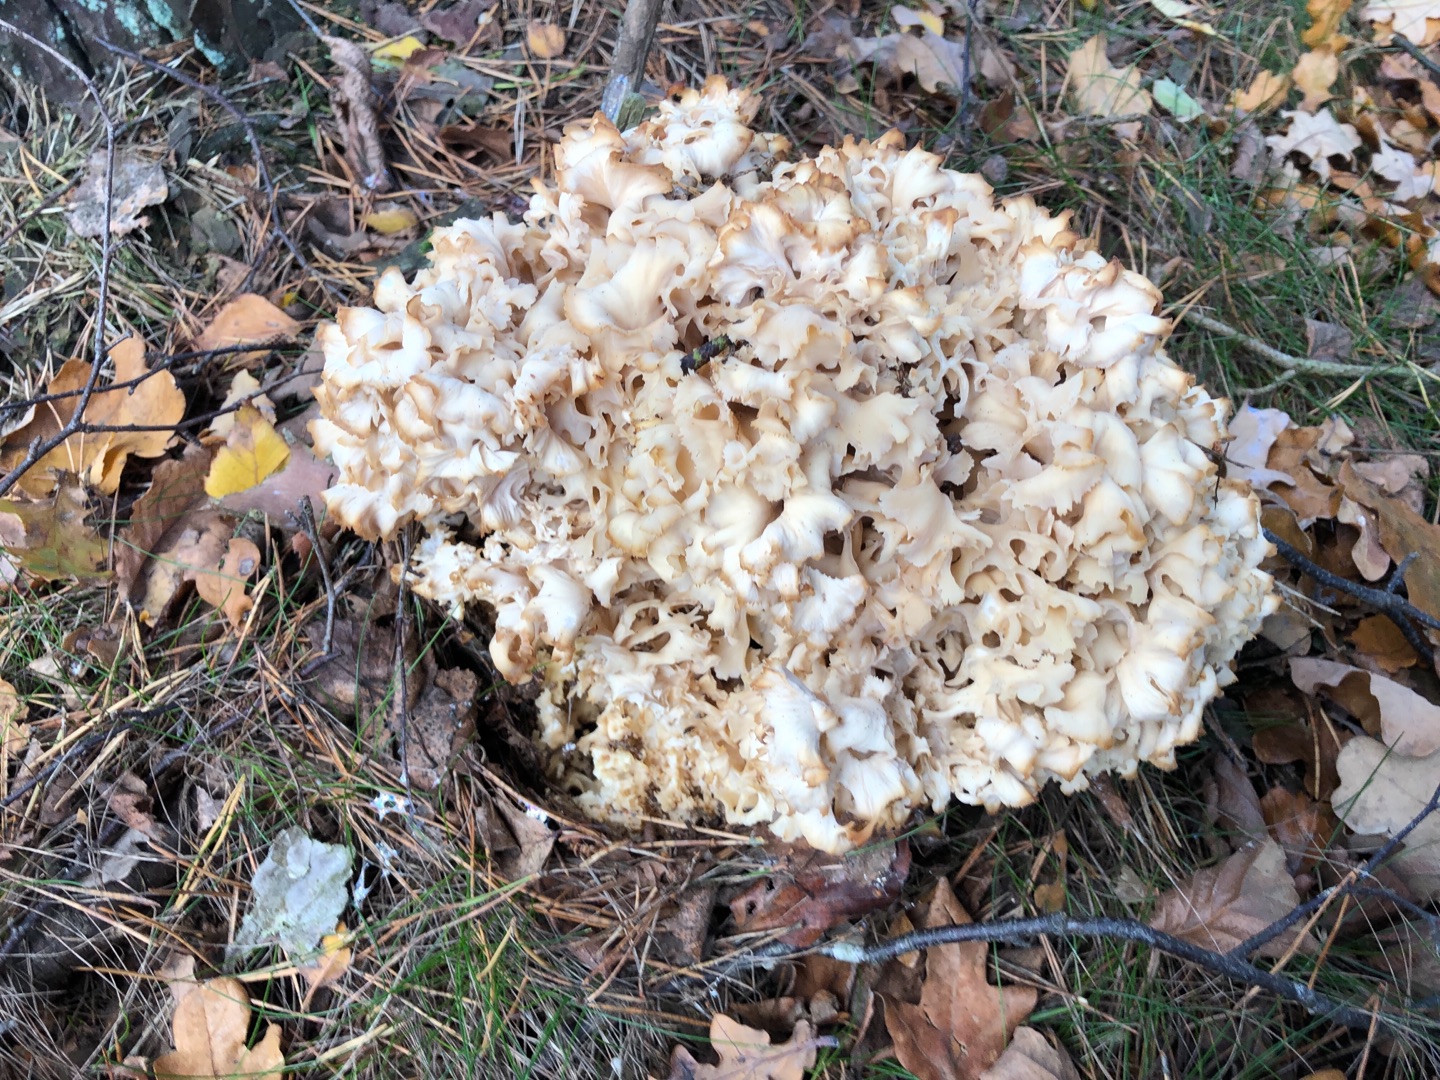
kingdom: Fungi
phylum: Basidiomycota
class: Agaricomycetes
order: Polyporales
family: Sparassidaceae
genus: Sparassis
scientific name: Sparassis crispa
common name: Kruset blomkålssvamp
